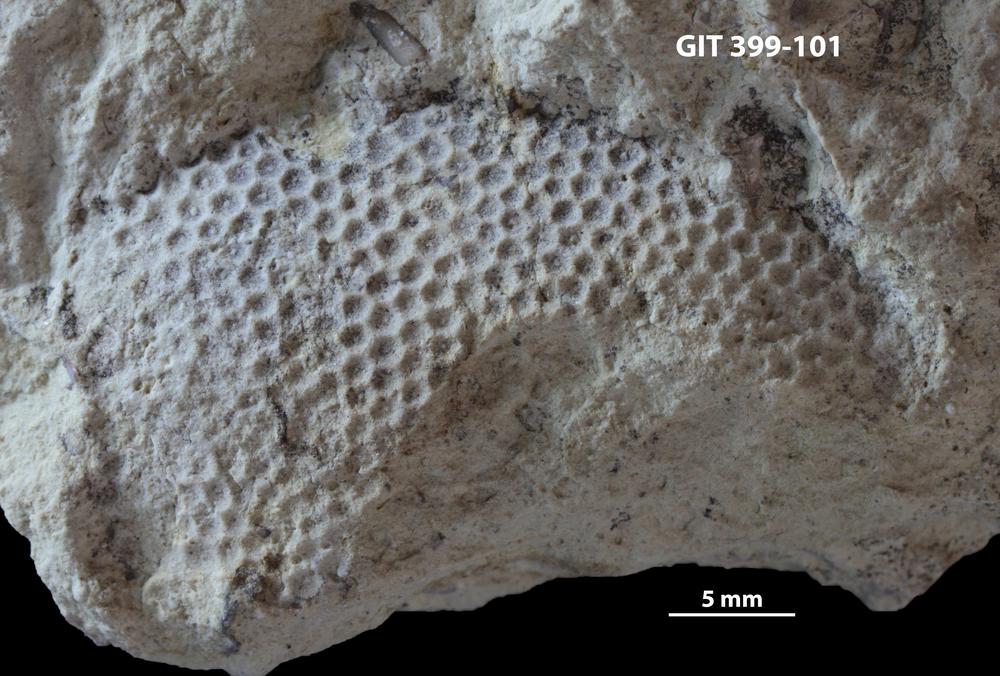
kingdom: Plantae
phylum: Chlorophyta
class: Ulvophyceae
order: Cyclocrinales
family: Cyclocrinaceae
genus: Mastopora
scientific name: Mastopora concava
